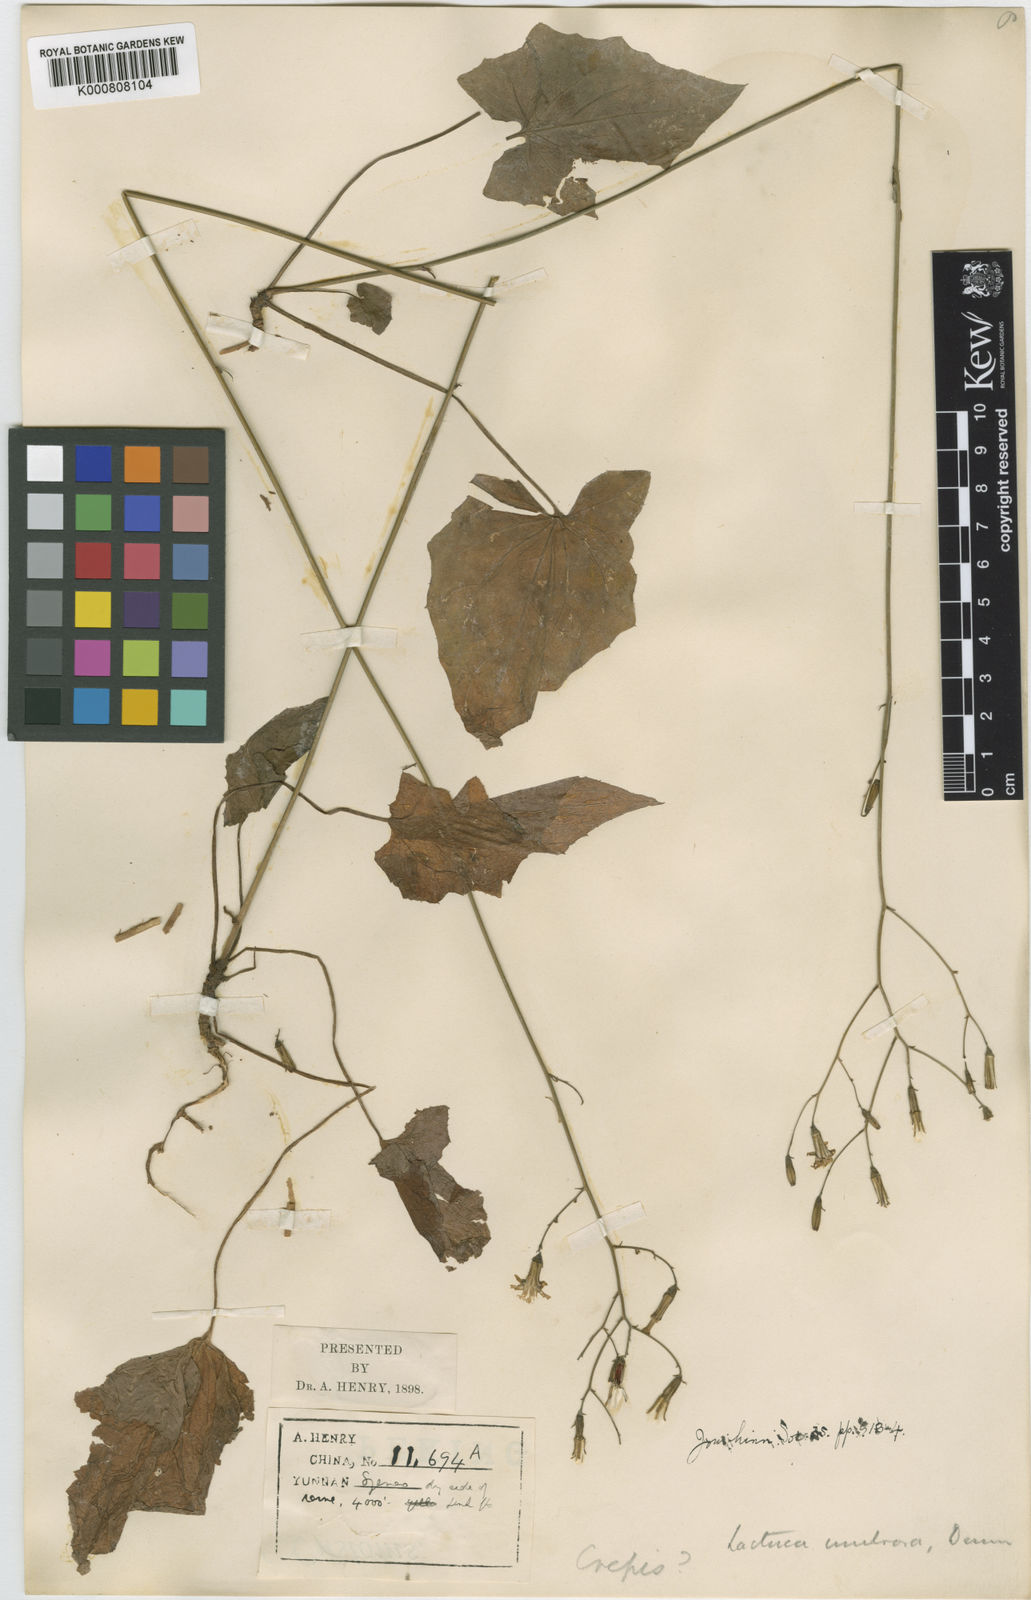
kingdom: Plantae
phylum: Tracheophyta
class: Magnoliopsida
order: Asterales
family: Asteraceae
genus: Paraprenanthes
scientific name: Paraprenanthes umbrosa
